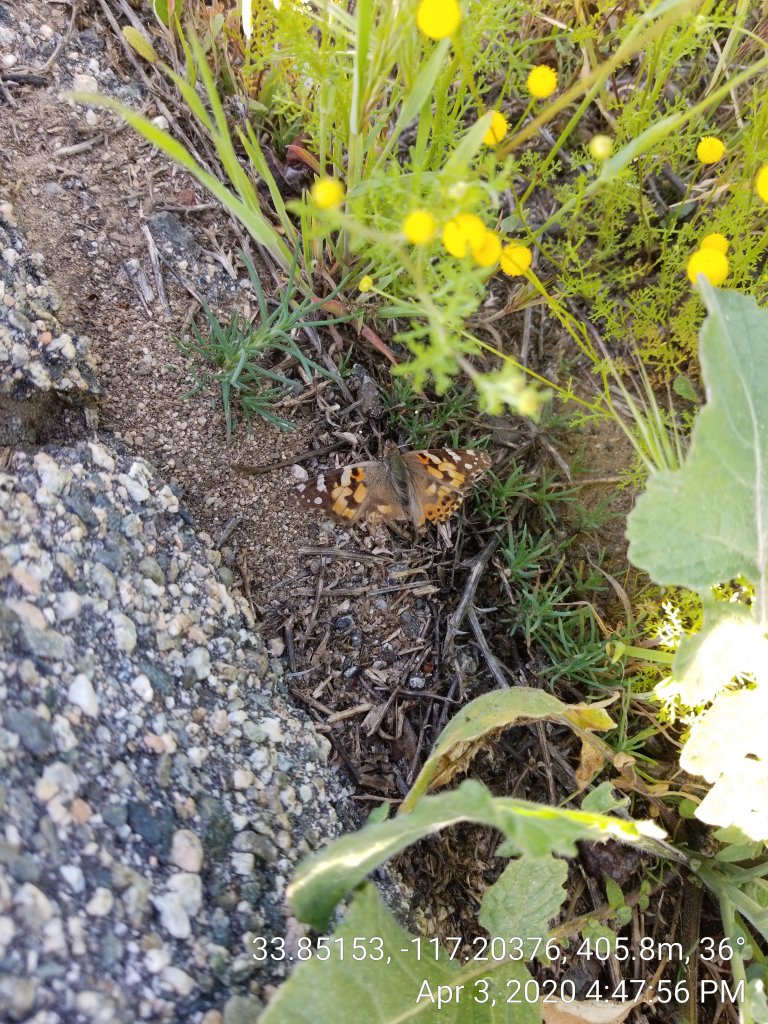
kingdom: Animalia
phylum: Arthropoda
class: Insecta
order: Lepidoptera
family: Nymphalidae
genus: Vanessa
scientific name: Vanessa cardui
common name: Painted Lady
